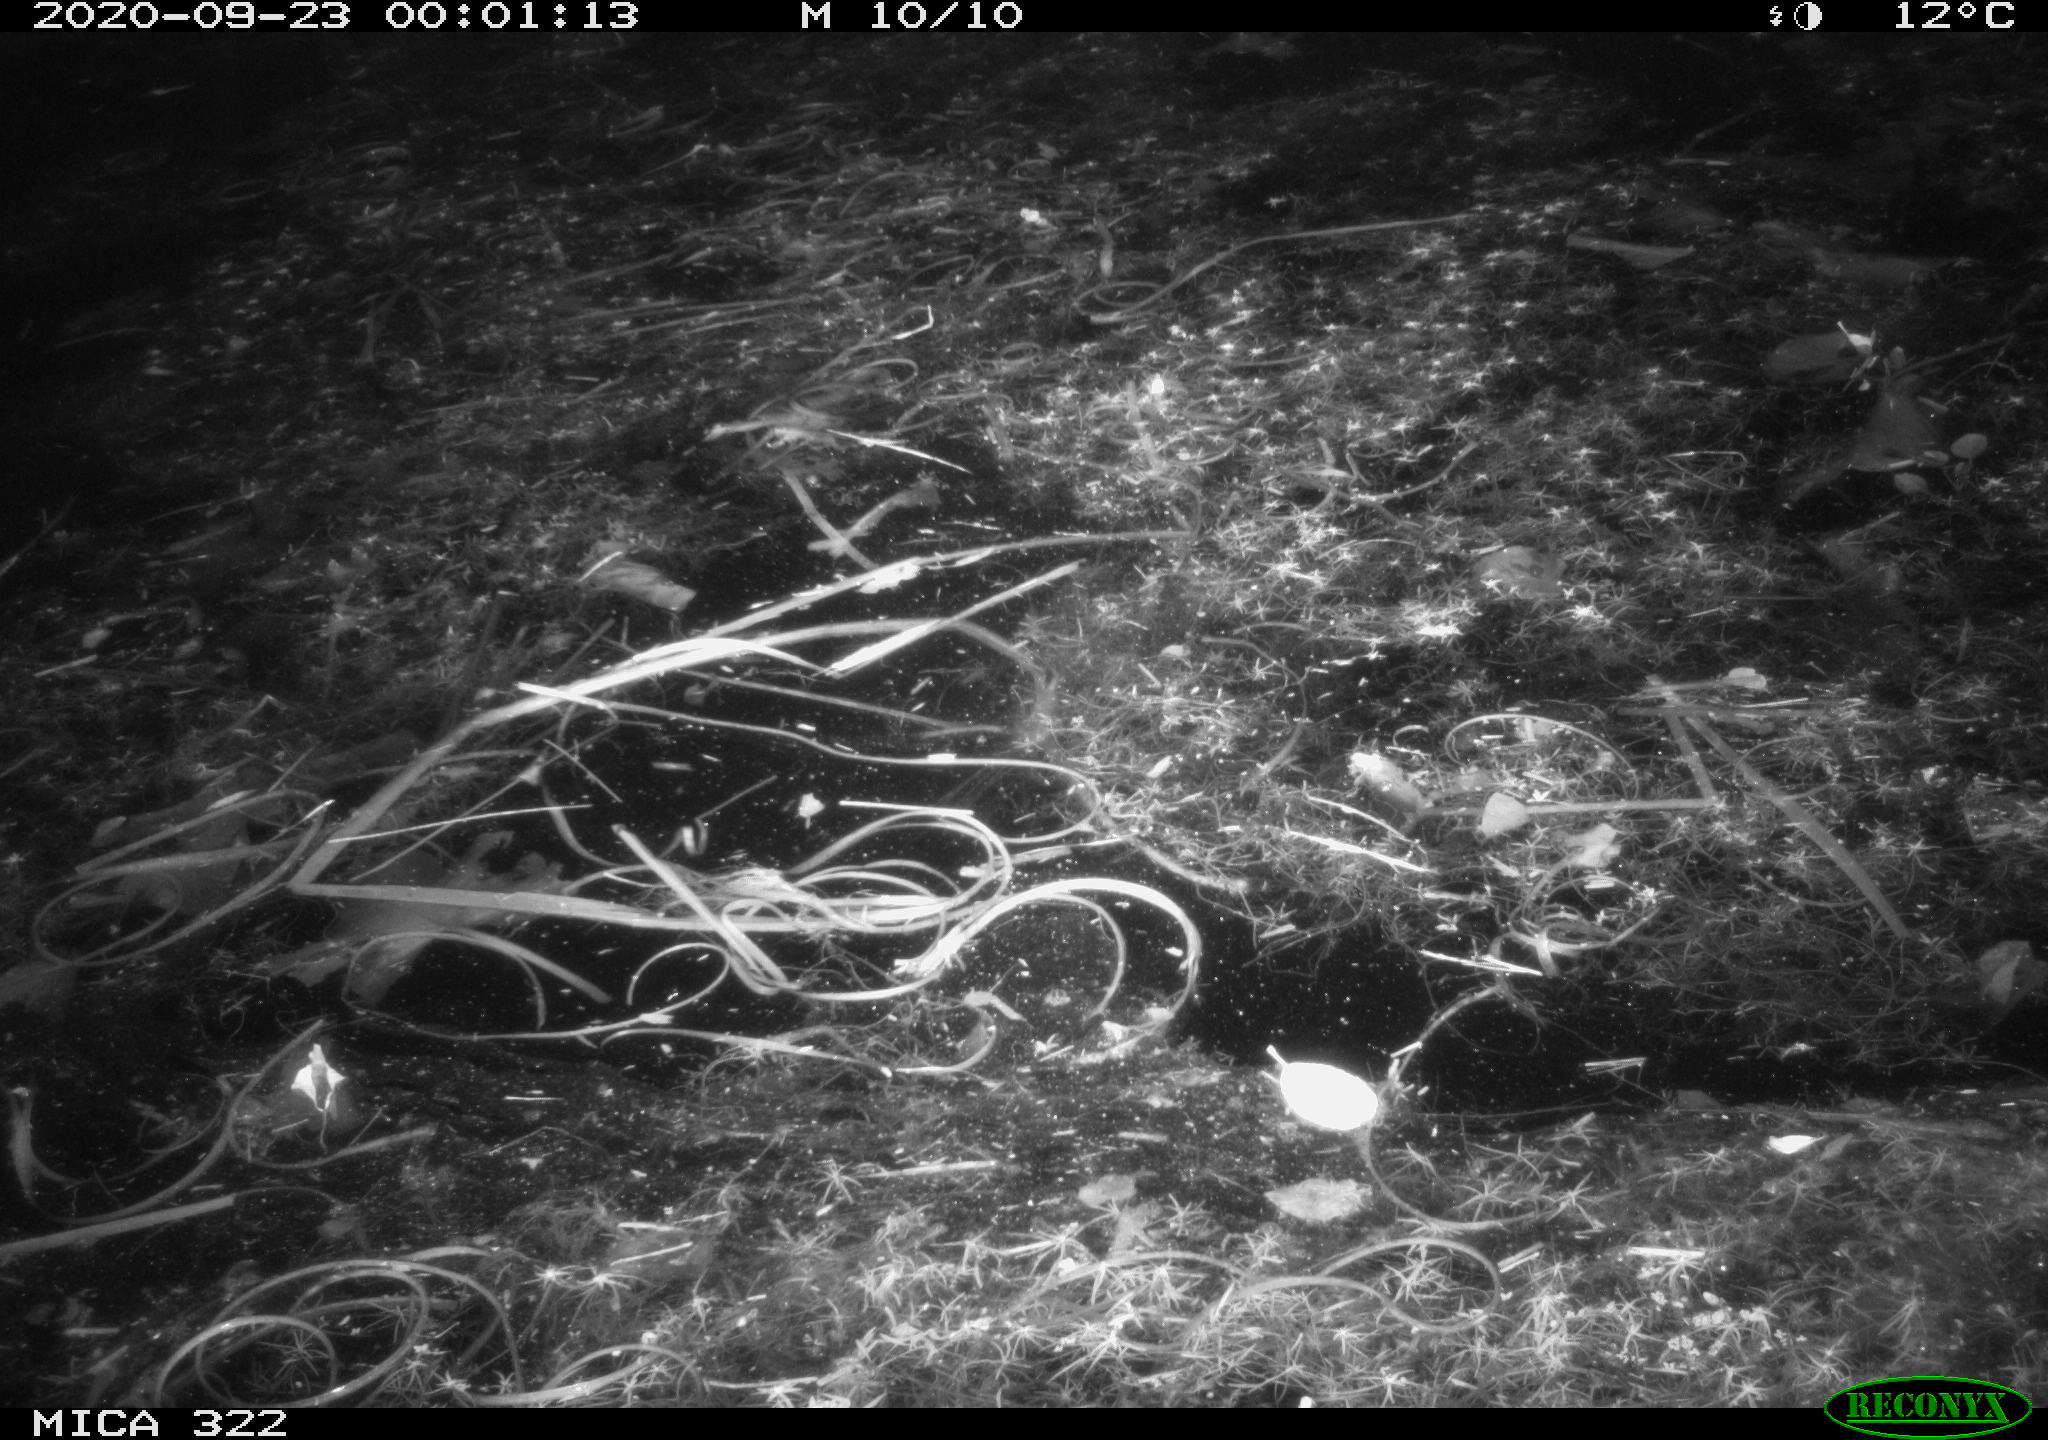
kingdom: Animalia
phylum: Chordata
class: Mammalia
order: Rodentia
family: Muridae
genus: Rattus
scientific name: Rattus norvegicus
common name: Brown rat
